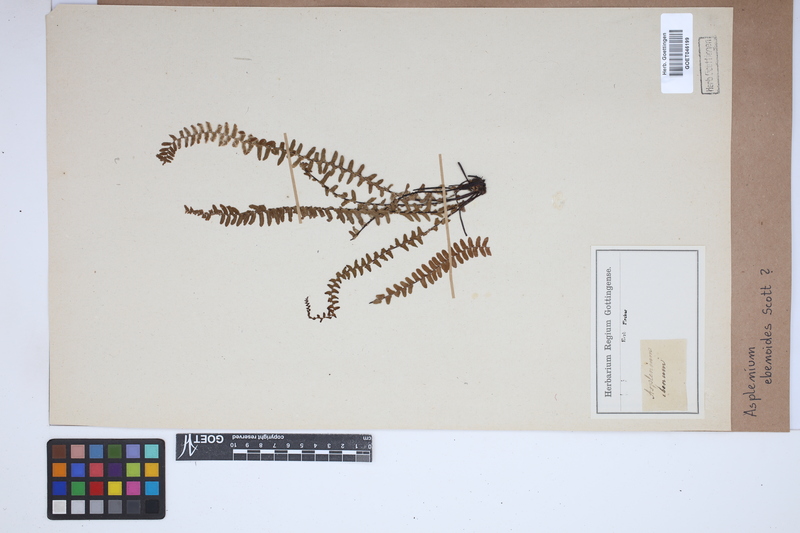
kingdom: Plantae
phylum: Tracheophyta
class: Polypodiopsida
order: Polypodiales
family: Aspleniaceae
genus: Asplenium
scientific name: Asplenium ebenoides
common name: Dragon-tail fern
